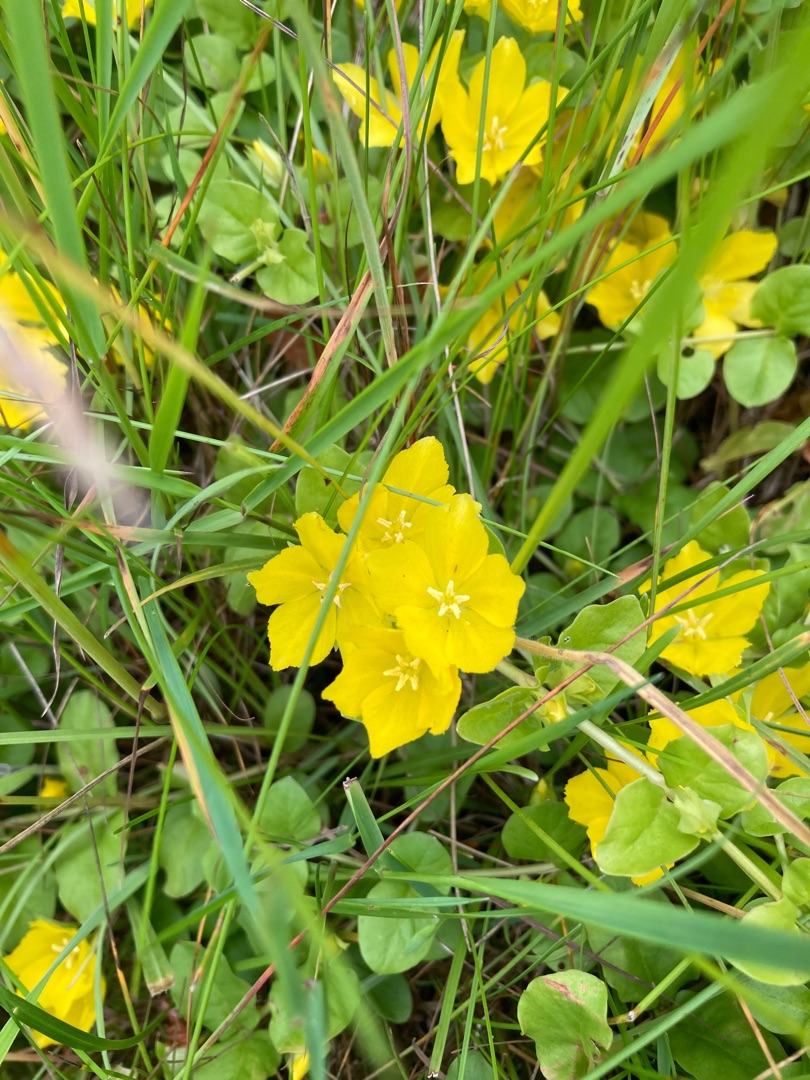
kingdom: Plantae
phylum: Tracheophyta
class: Magnoliopsida
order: Ericales
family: Primulaceae
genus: Lysimachia
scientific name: Lysimachia nummularia
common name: Pengebladet fredløs
